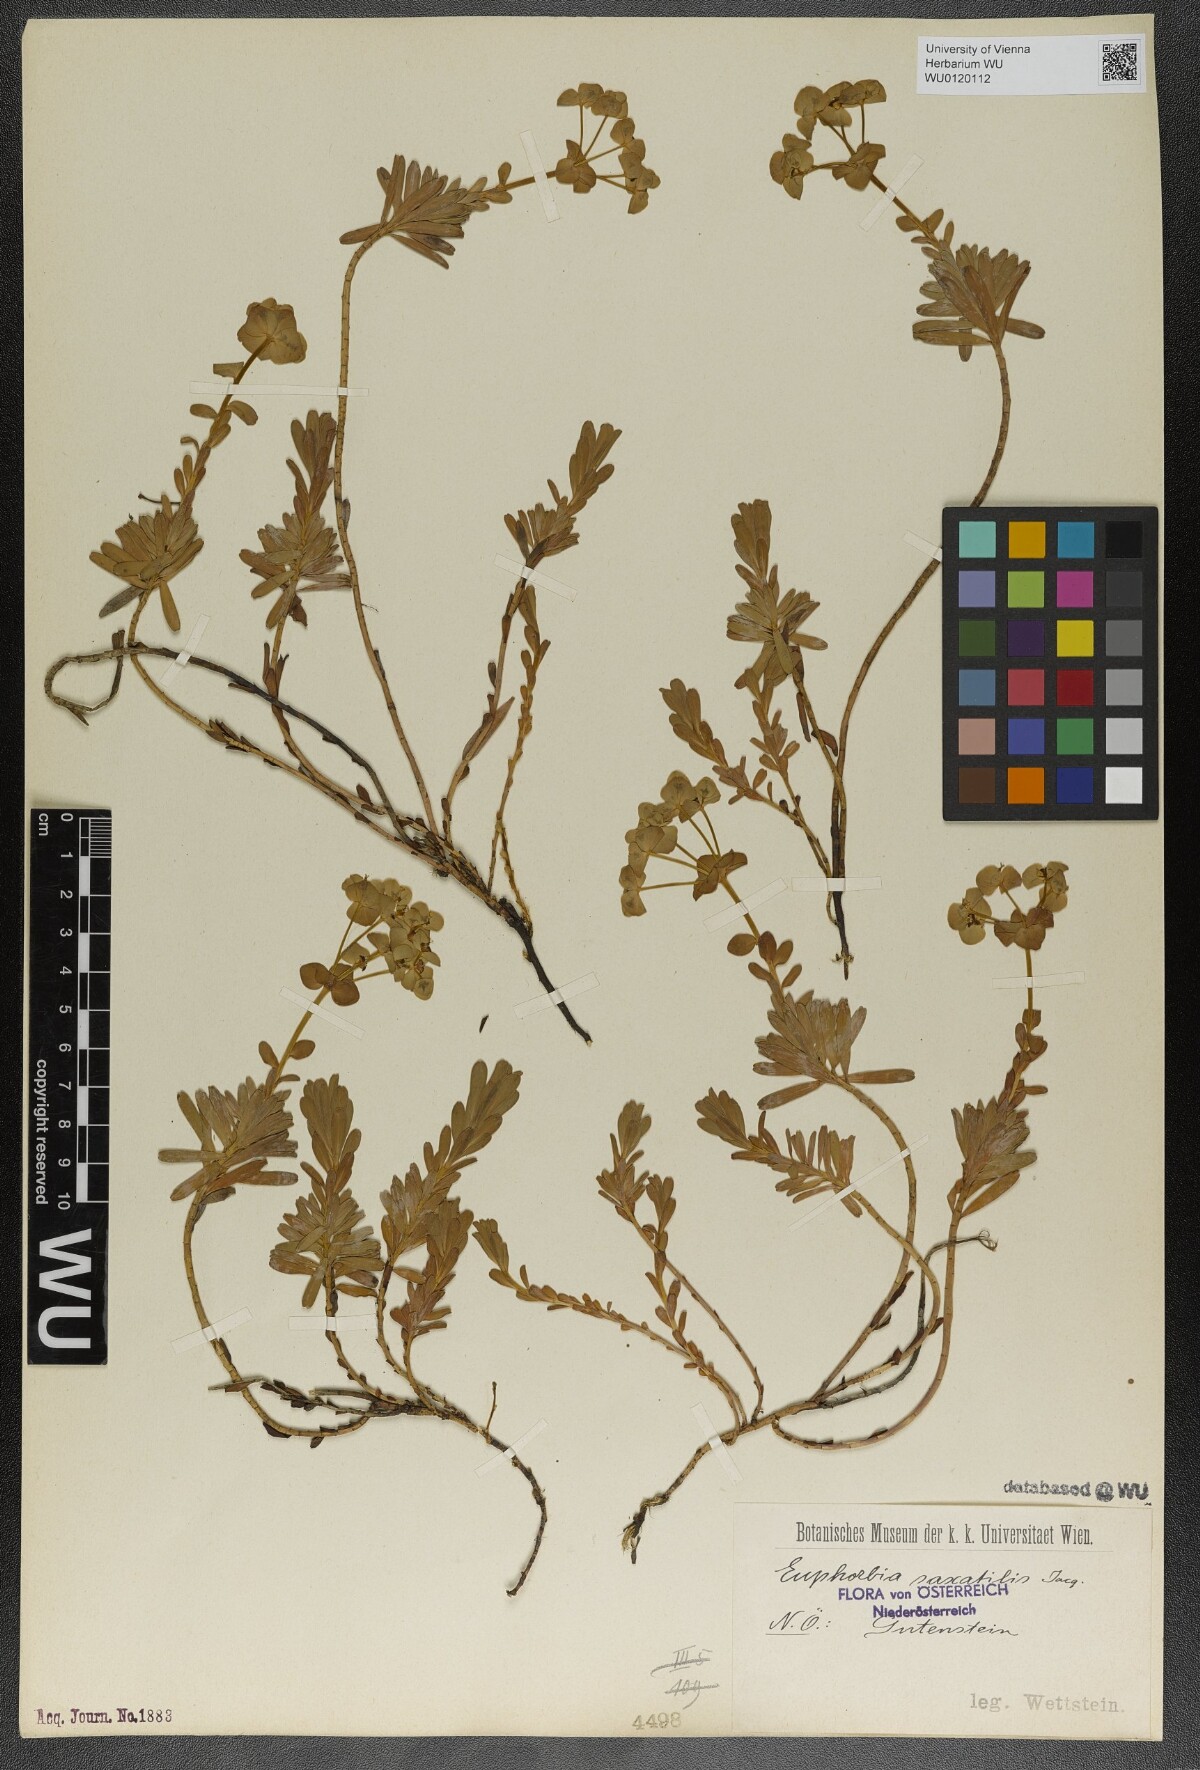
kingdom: Plantae
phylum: Tracheophyta
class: Magnoliopsida
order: Malpighiales
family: Euphorbiaceae
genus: Euphorbia
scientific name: Euphorbia saxatilis
